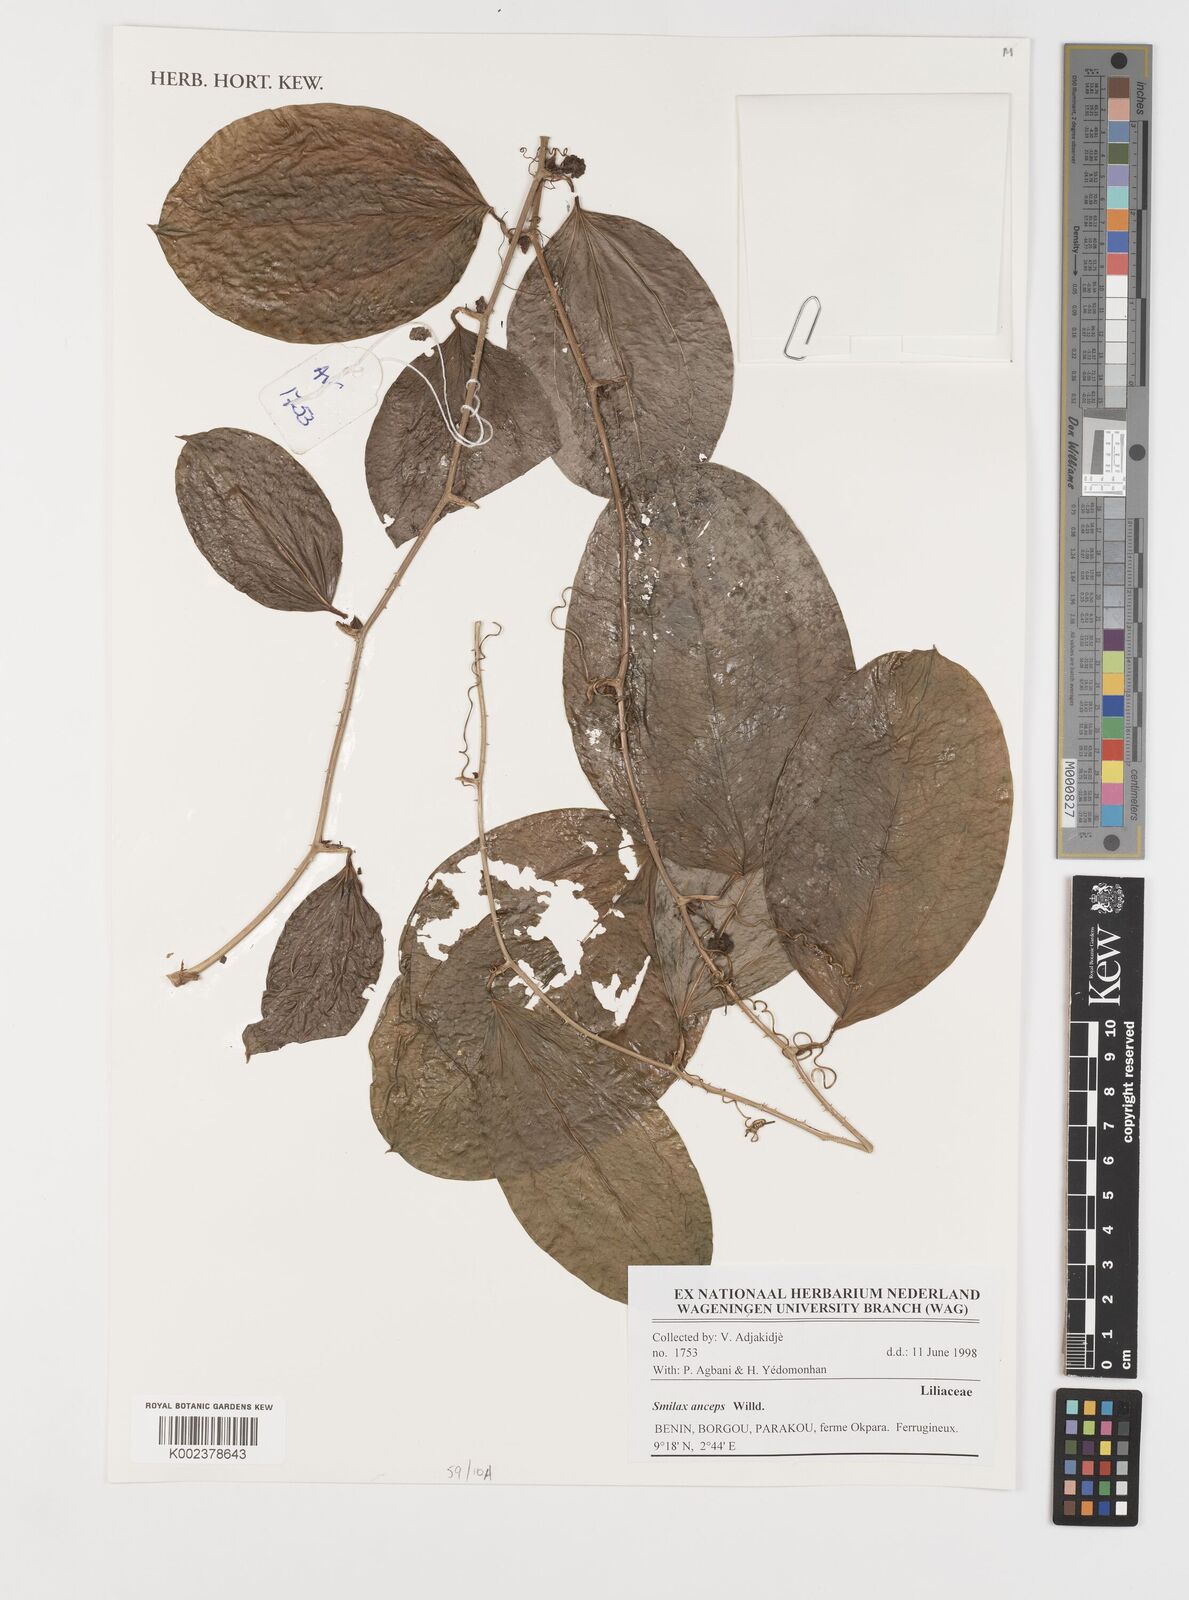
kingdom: Plantae
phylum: Tracheophyta
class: Liliopsida
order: Liliales
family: Smilacaceae
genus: Smilax
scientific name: Smilax anceps
